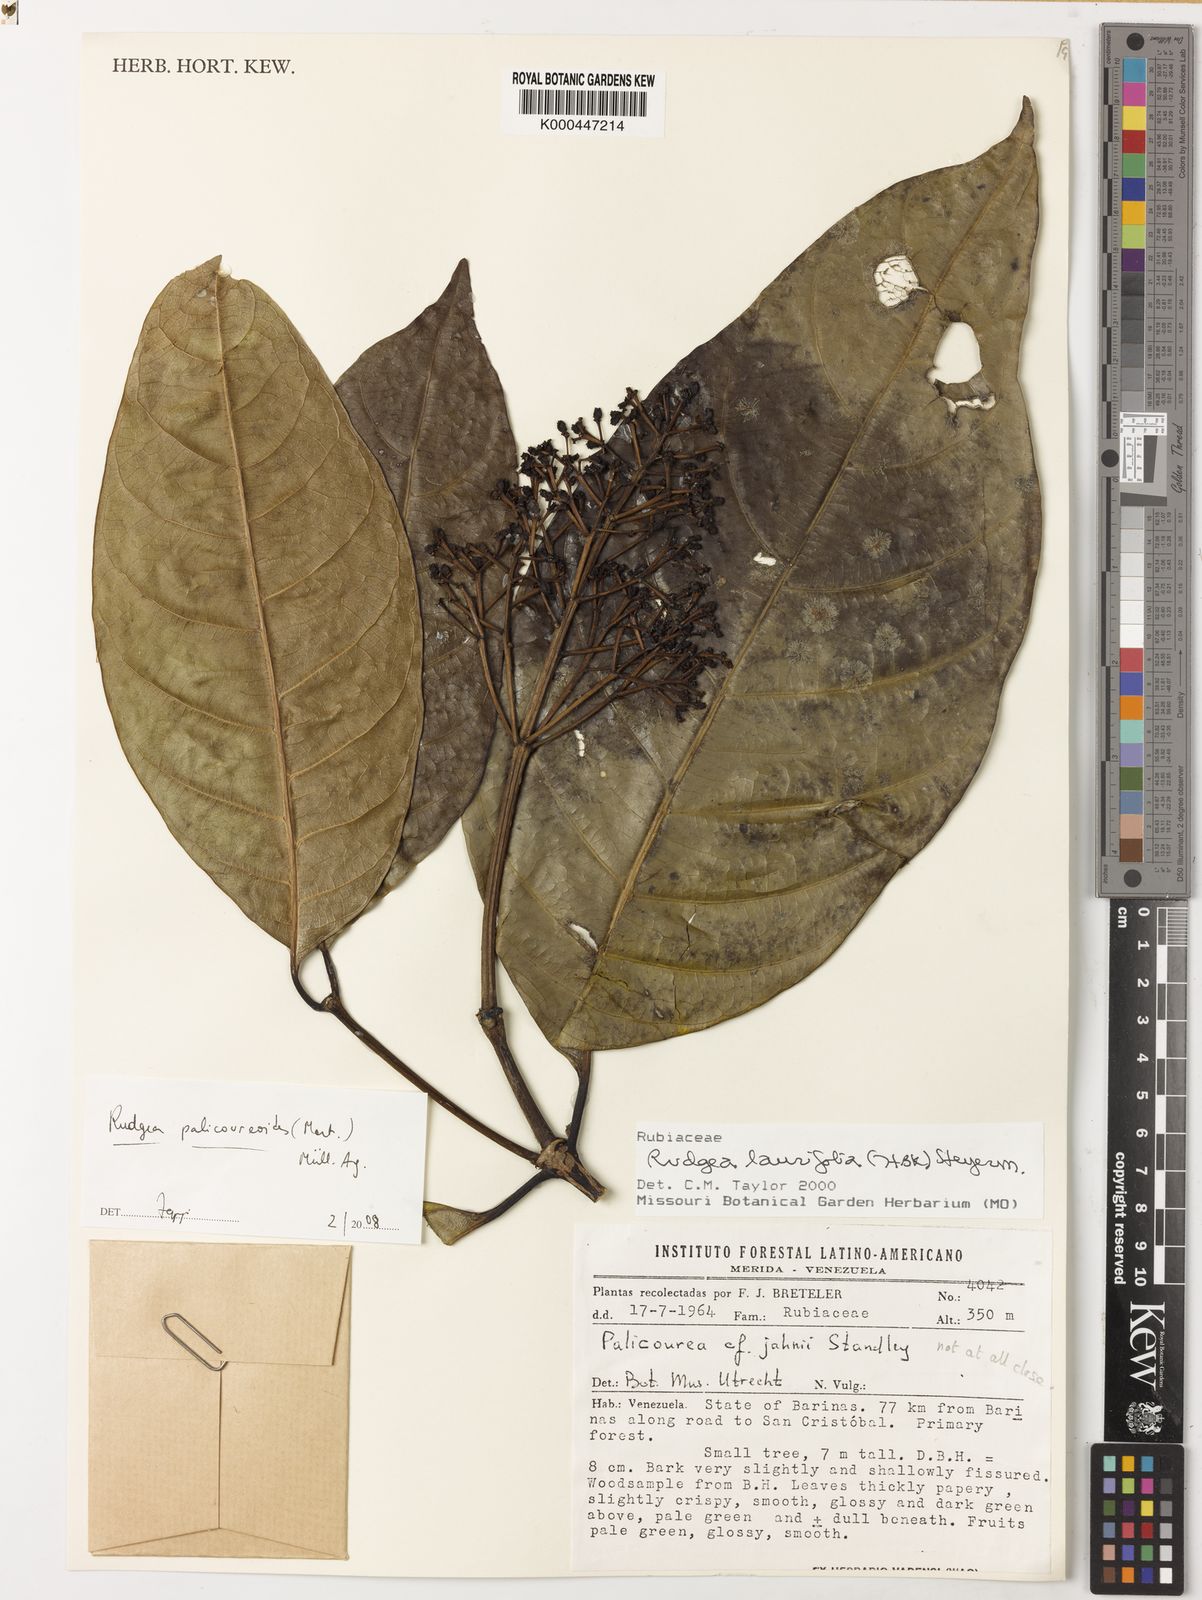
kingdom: Plantae
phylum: Tracheophyta
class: Magnoliopsida
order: Gentianales
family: Rubiaceae
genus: Rudgea
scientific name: Rudgea palicoureoides
